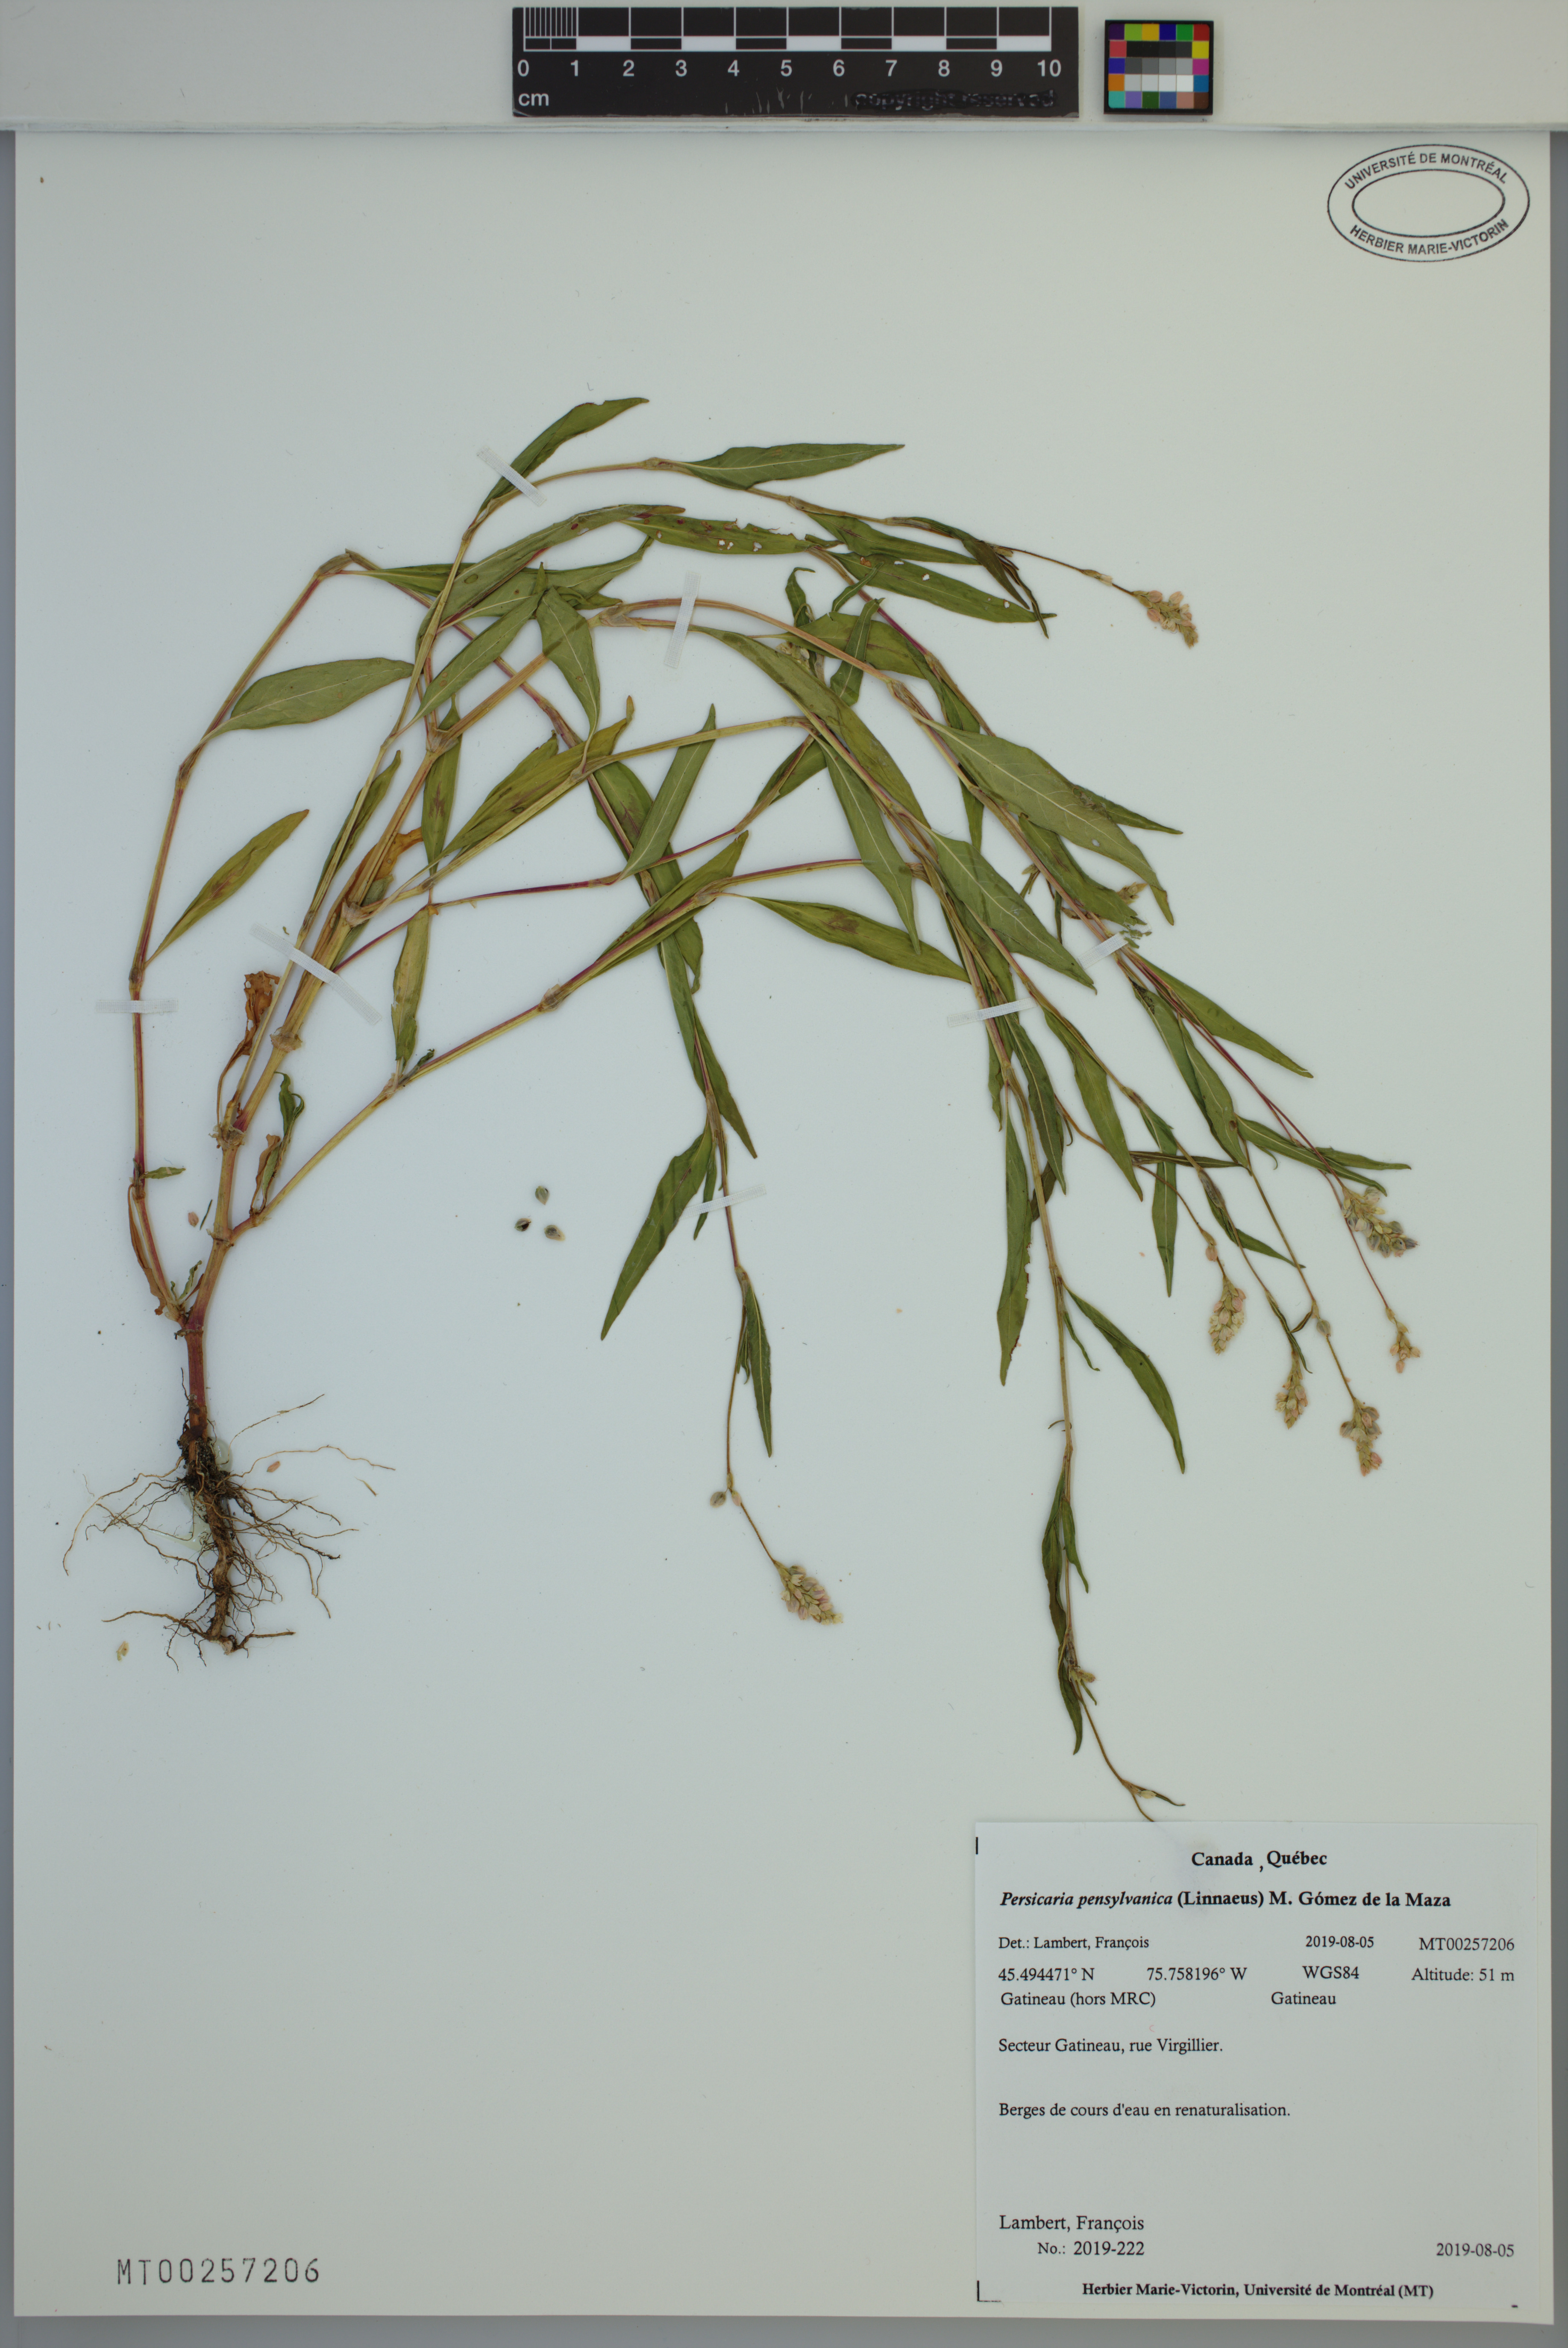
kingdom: Plantae
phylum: Tracheophyta
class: Magnoliopsida
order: Caryophyllales
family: Polygonaceae
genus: Persicaria
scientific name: Persicaria pensylvanica
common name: Pinkweed
